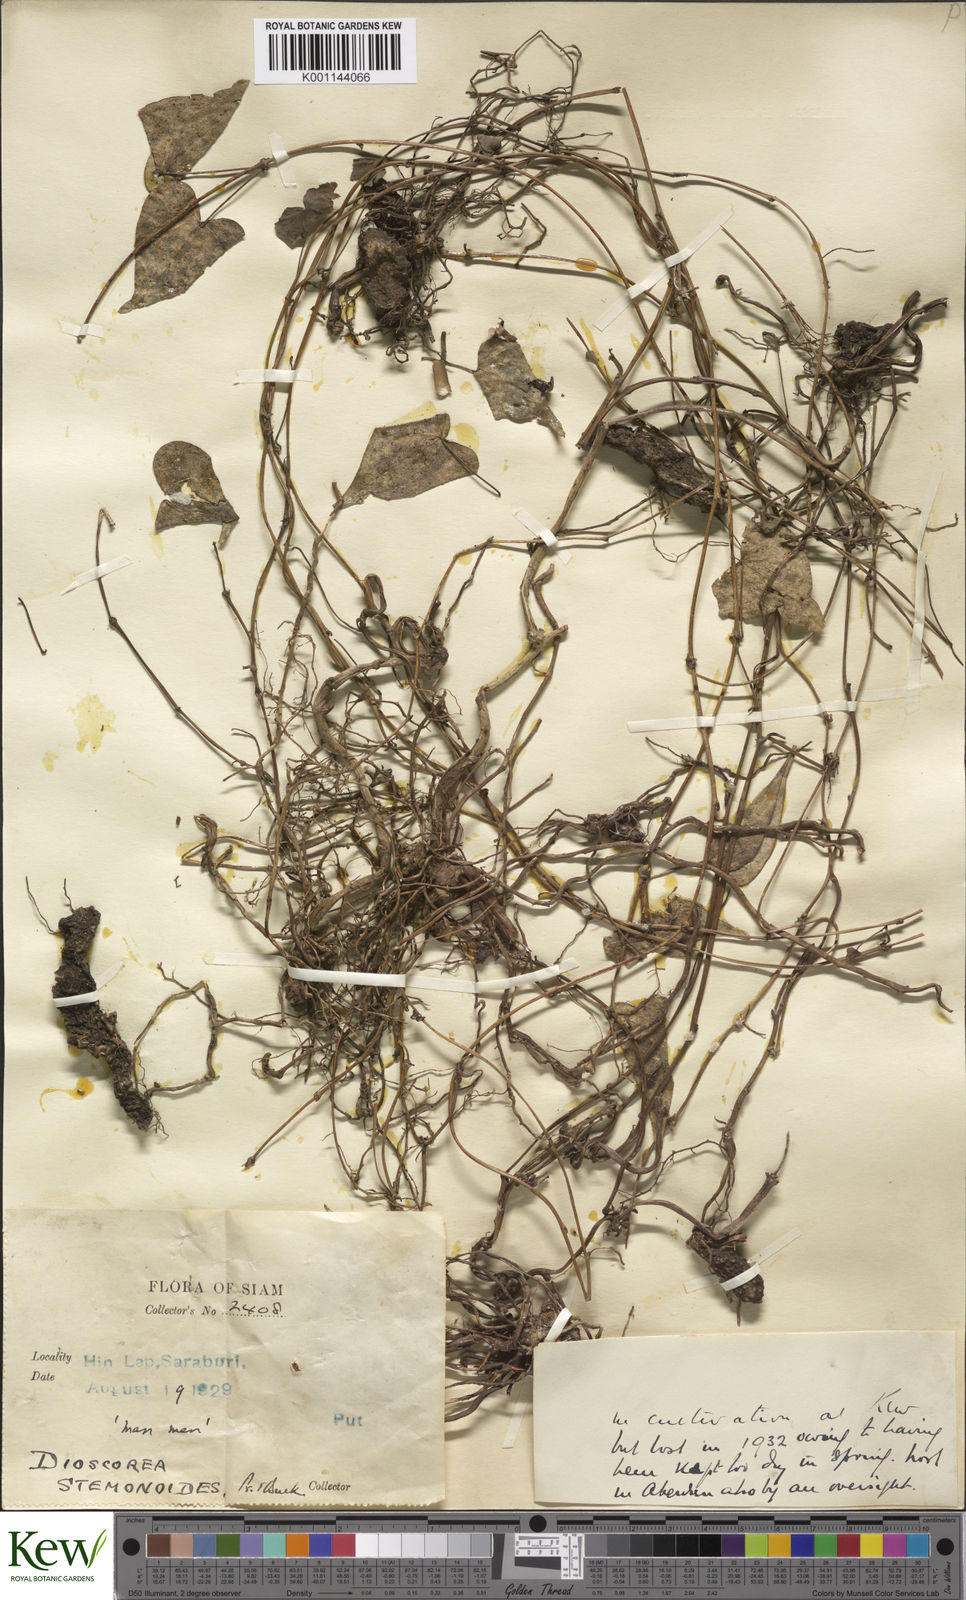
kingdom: Plantae
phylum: Tracheophyta
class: Liliopsida
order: Dioscoreales
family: Dioscoreaceae
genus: Dioscorea
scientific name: Dioscorea stemonoides
